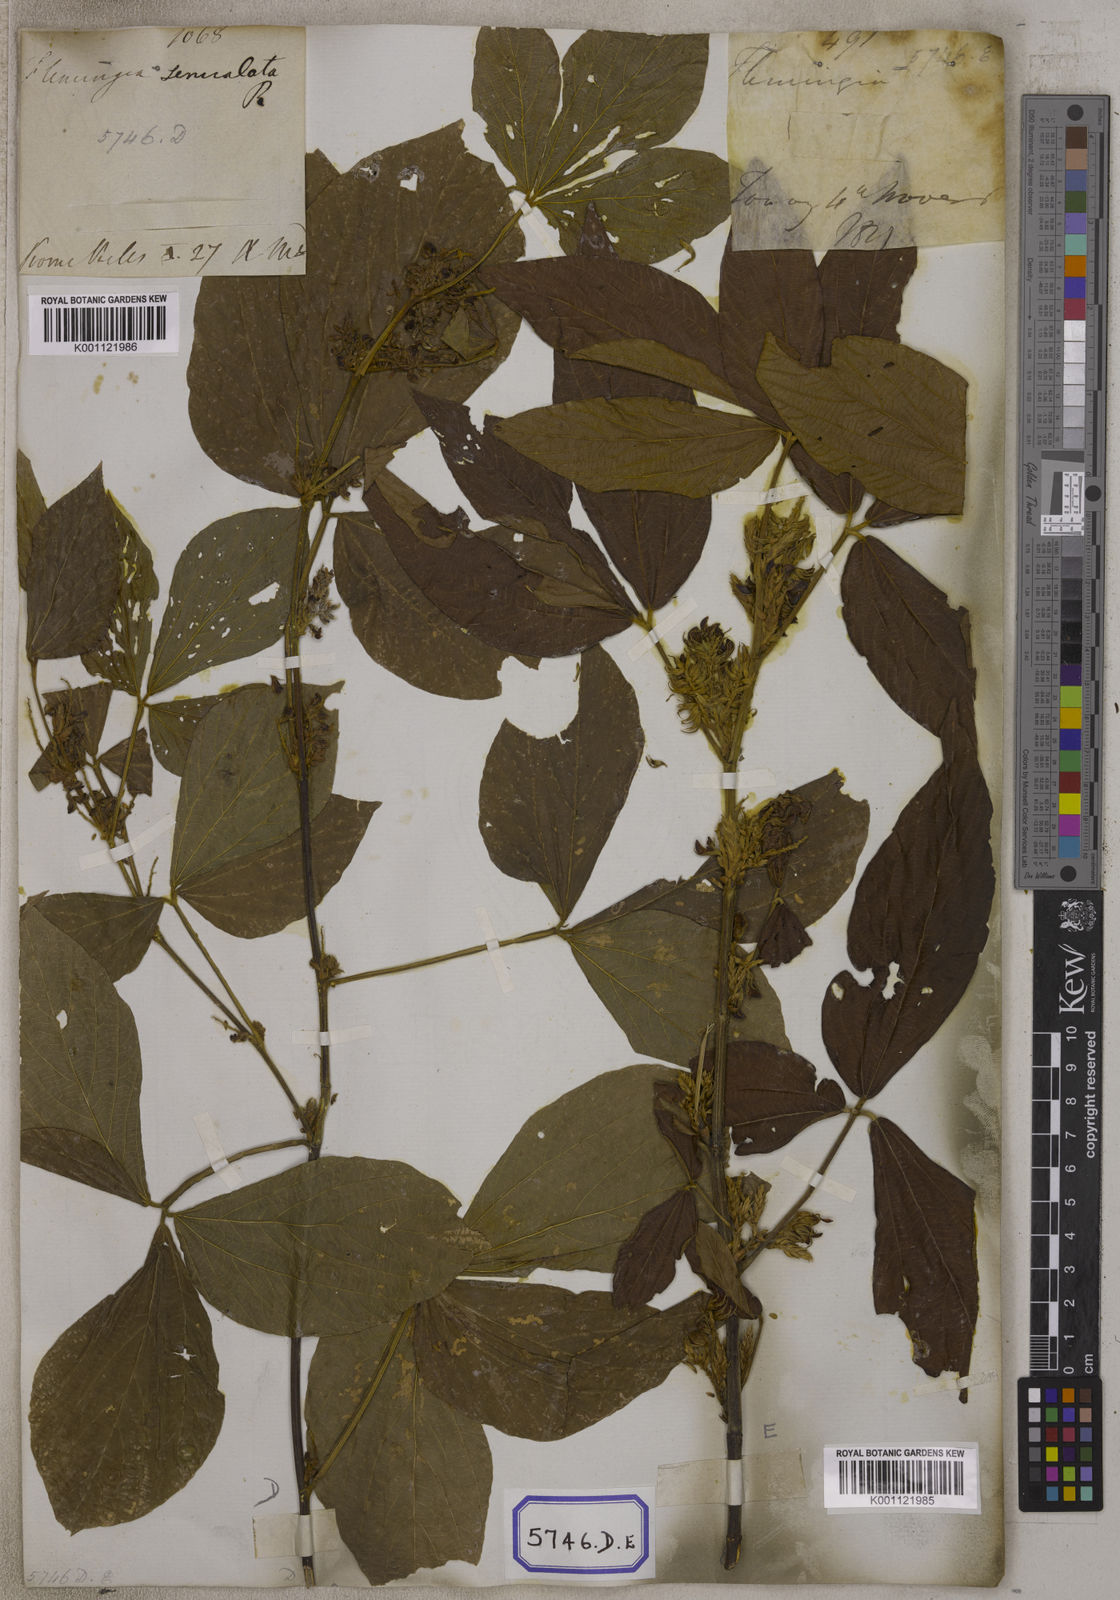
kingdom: Plantae
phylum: Tracheophyta
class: Magnoliopsida
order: Fabales
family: Fabaceae
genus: Flemingia
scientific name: Flemingia
